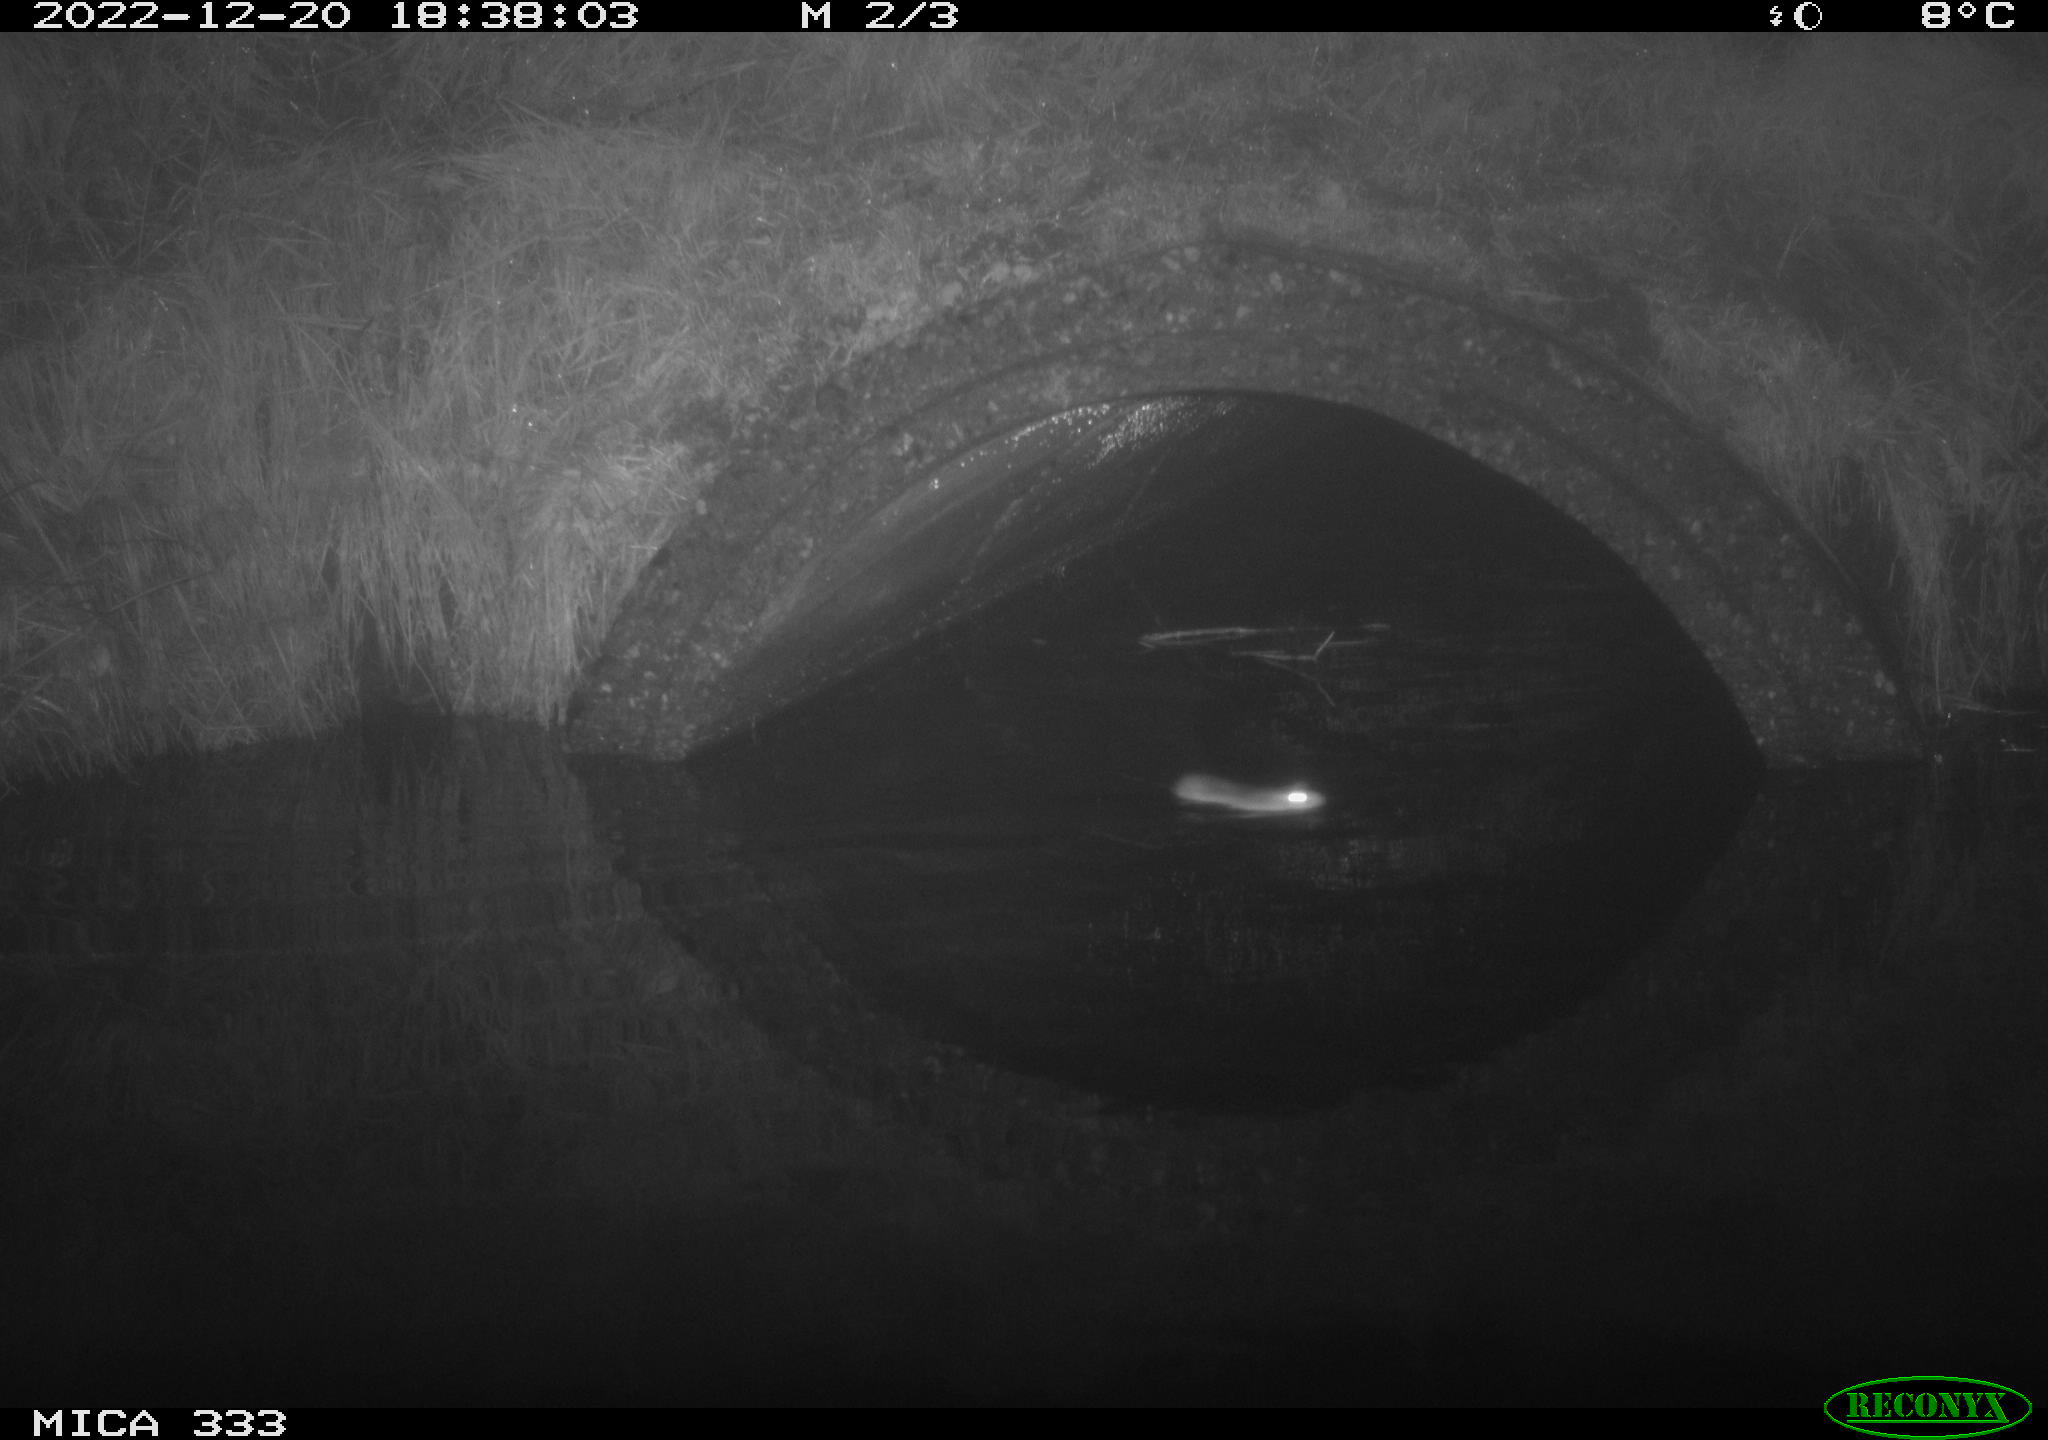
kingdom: Animalia
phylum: Chordata
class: Mammalia
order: Rodentia
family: Muridae
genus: Rattus
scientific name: Rattus norvegicus
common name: Brown rat
